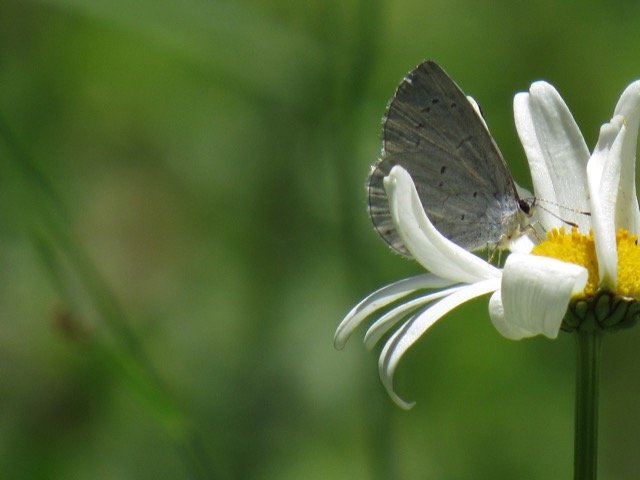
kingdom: Animalia
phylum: Arthropoda
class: Insecta
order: Lepidoptera
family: Lycaenidae
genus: Celastrina
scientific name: Celastrina
